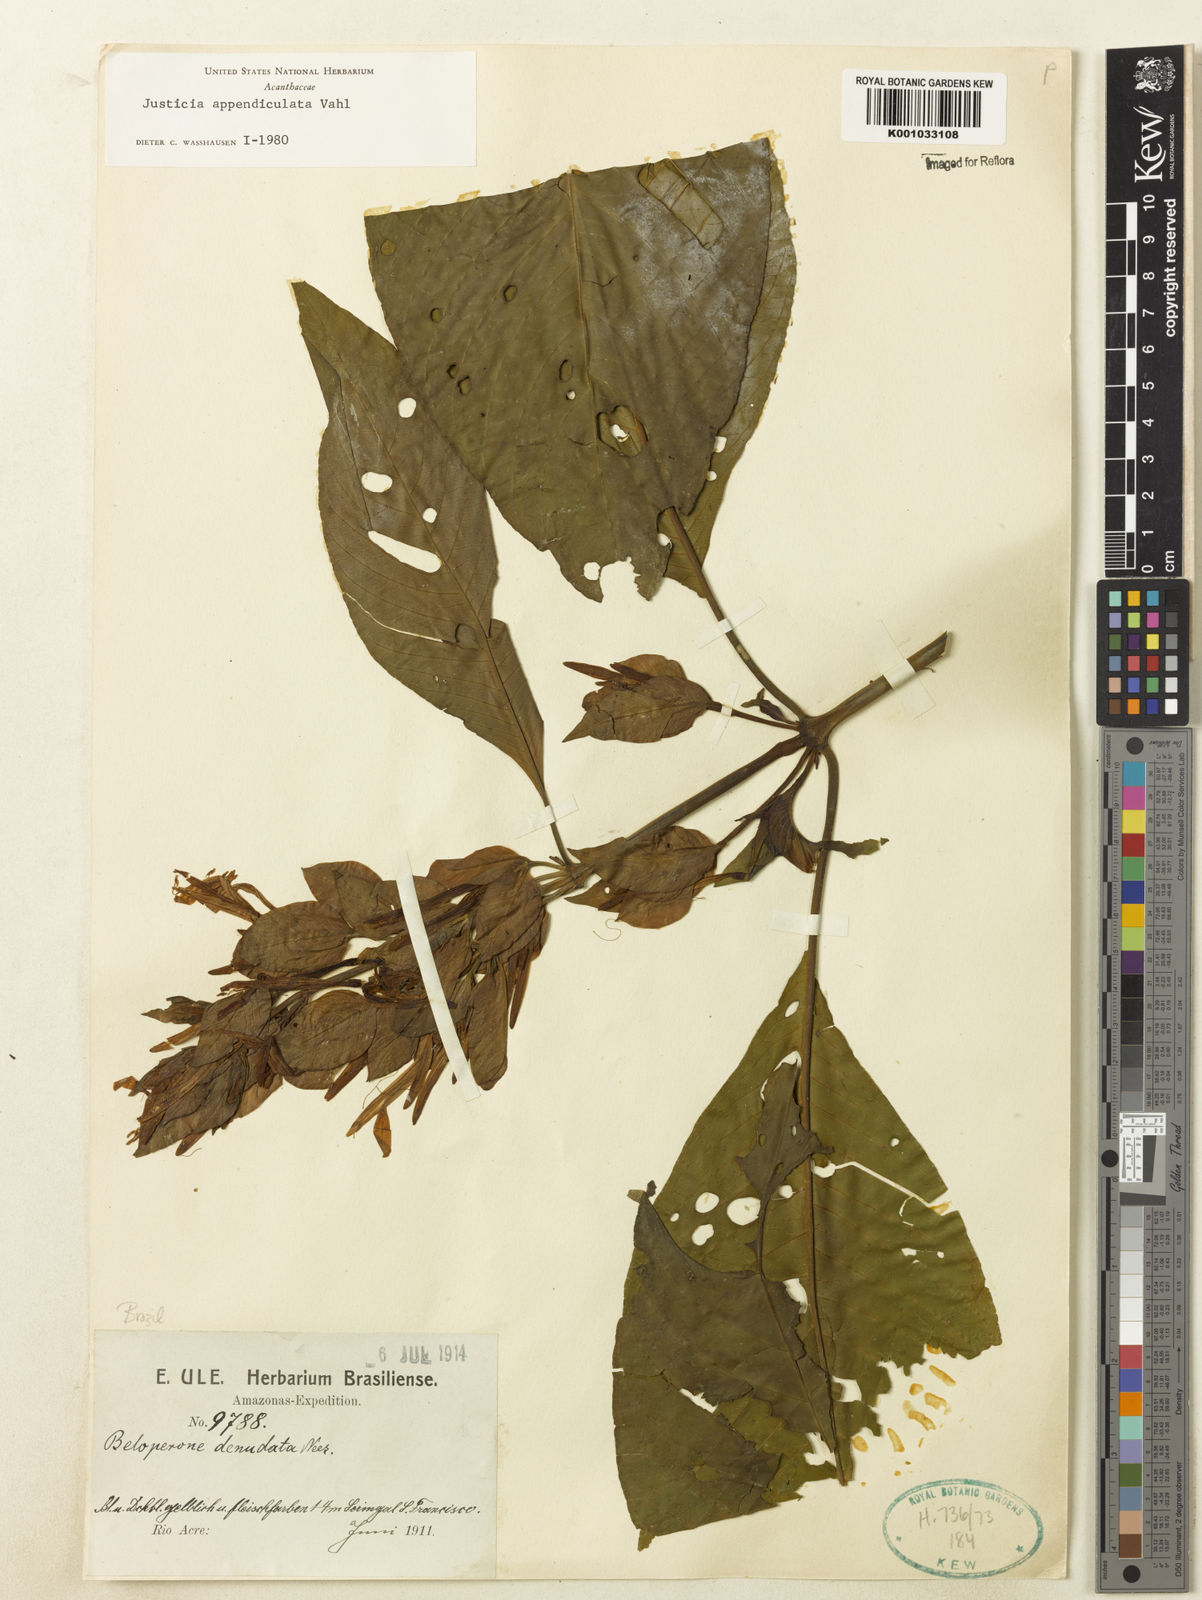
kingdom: Plantae
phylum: Tracheophyta
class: Magnoliopsida
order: Lamiales
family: Acanthaceae
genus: Dianthera
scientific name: Dianthera appendiculata
